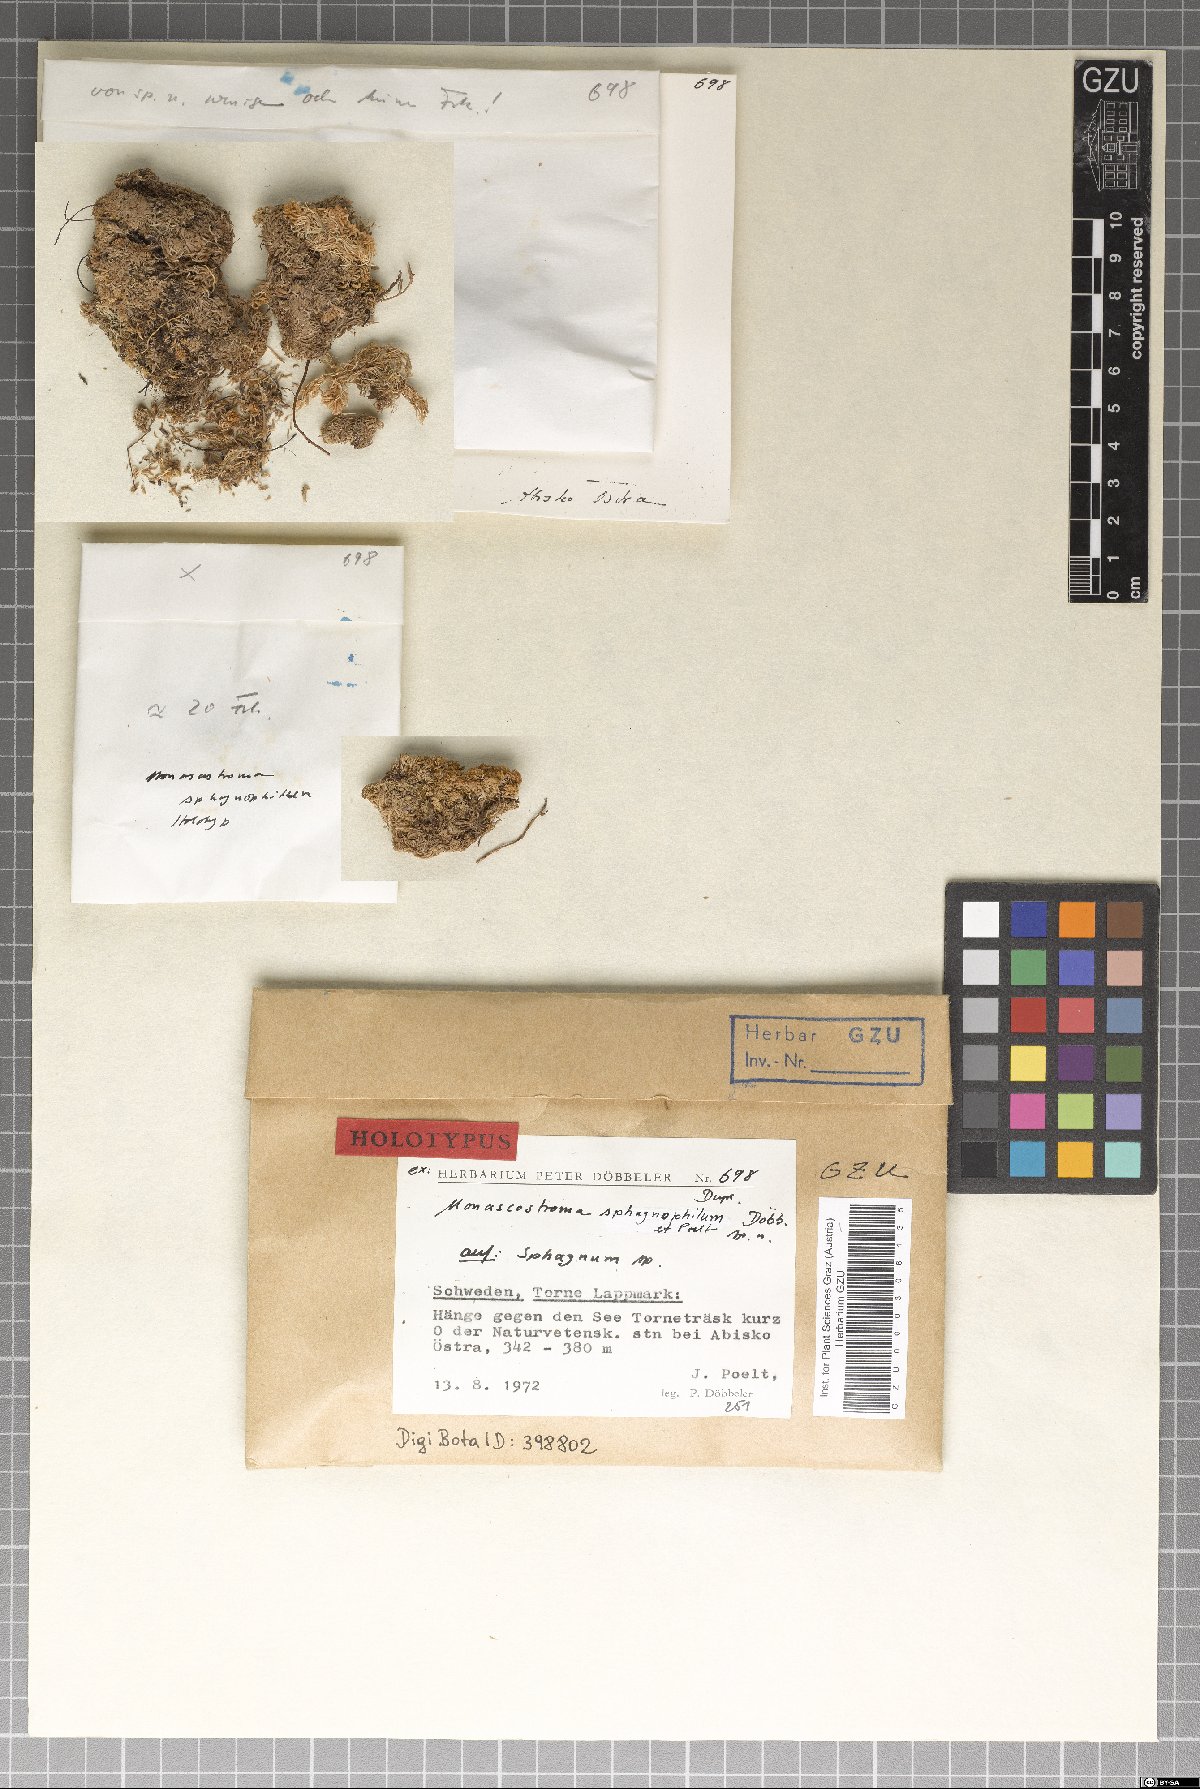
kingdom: Fungi
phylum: Ascomycota
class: Dothideomycetes
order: Pleosporales
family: Phaeosphaeriaceae
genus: Monascostroma
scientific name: Monascostroma sphagnophilum
